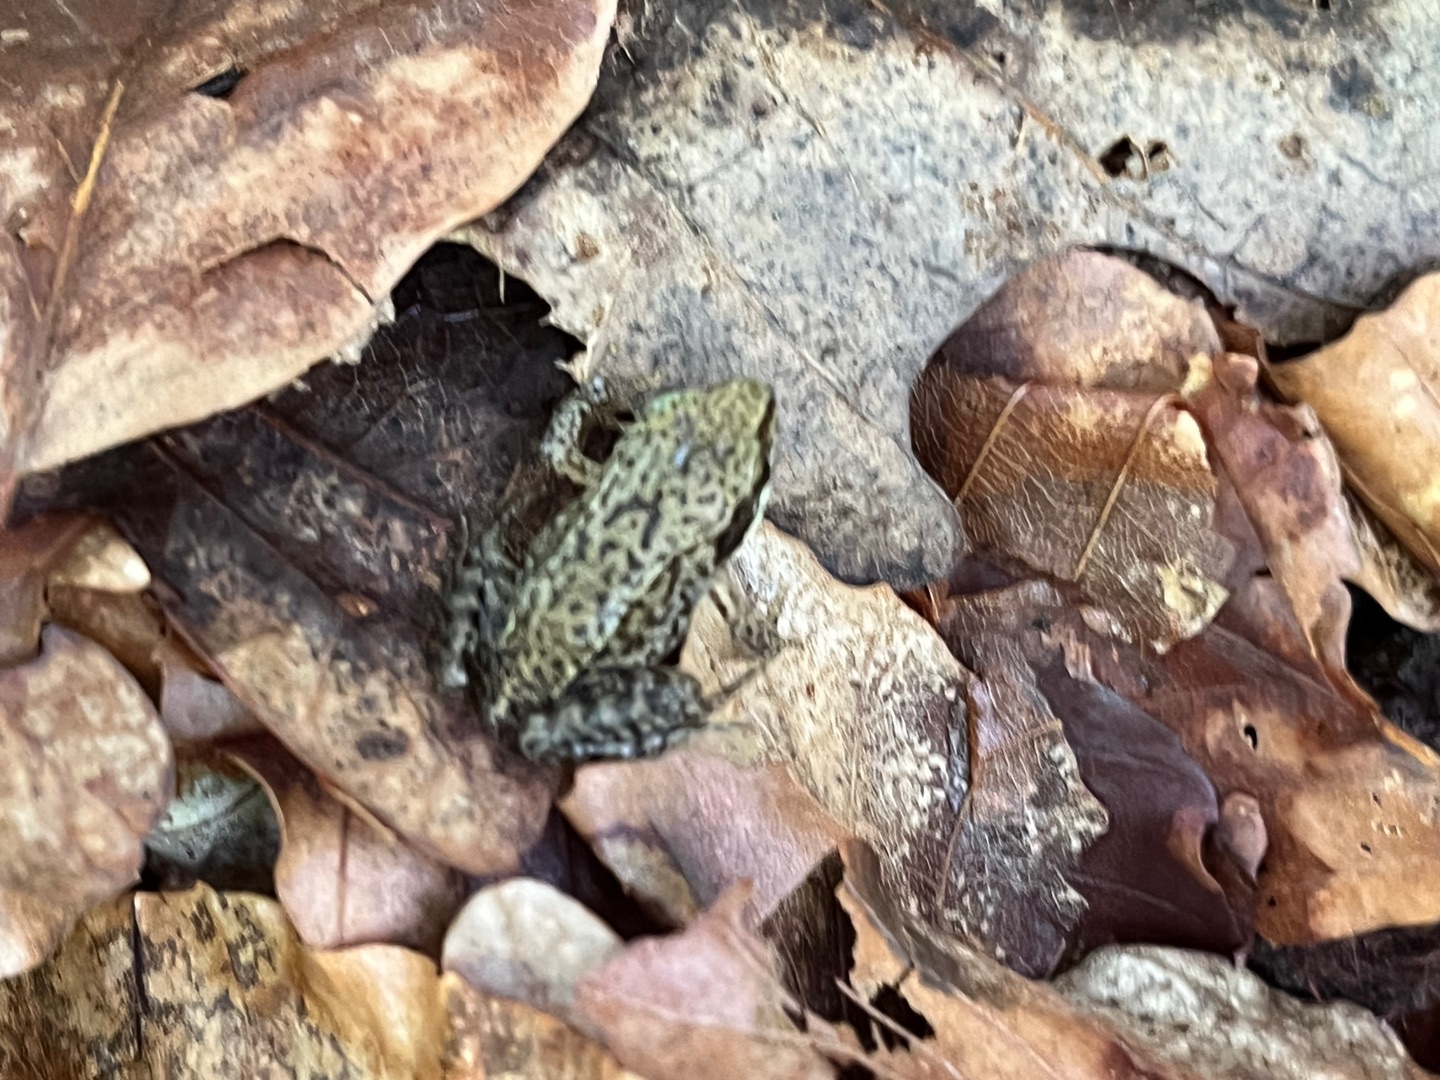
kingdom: Animalia
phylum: Chordata
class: Amphibia
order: Anura
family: Ranidae
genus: Rana
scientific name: Rana temporaria
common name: Butsnudet frø
